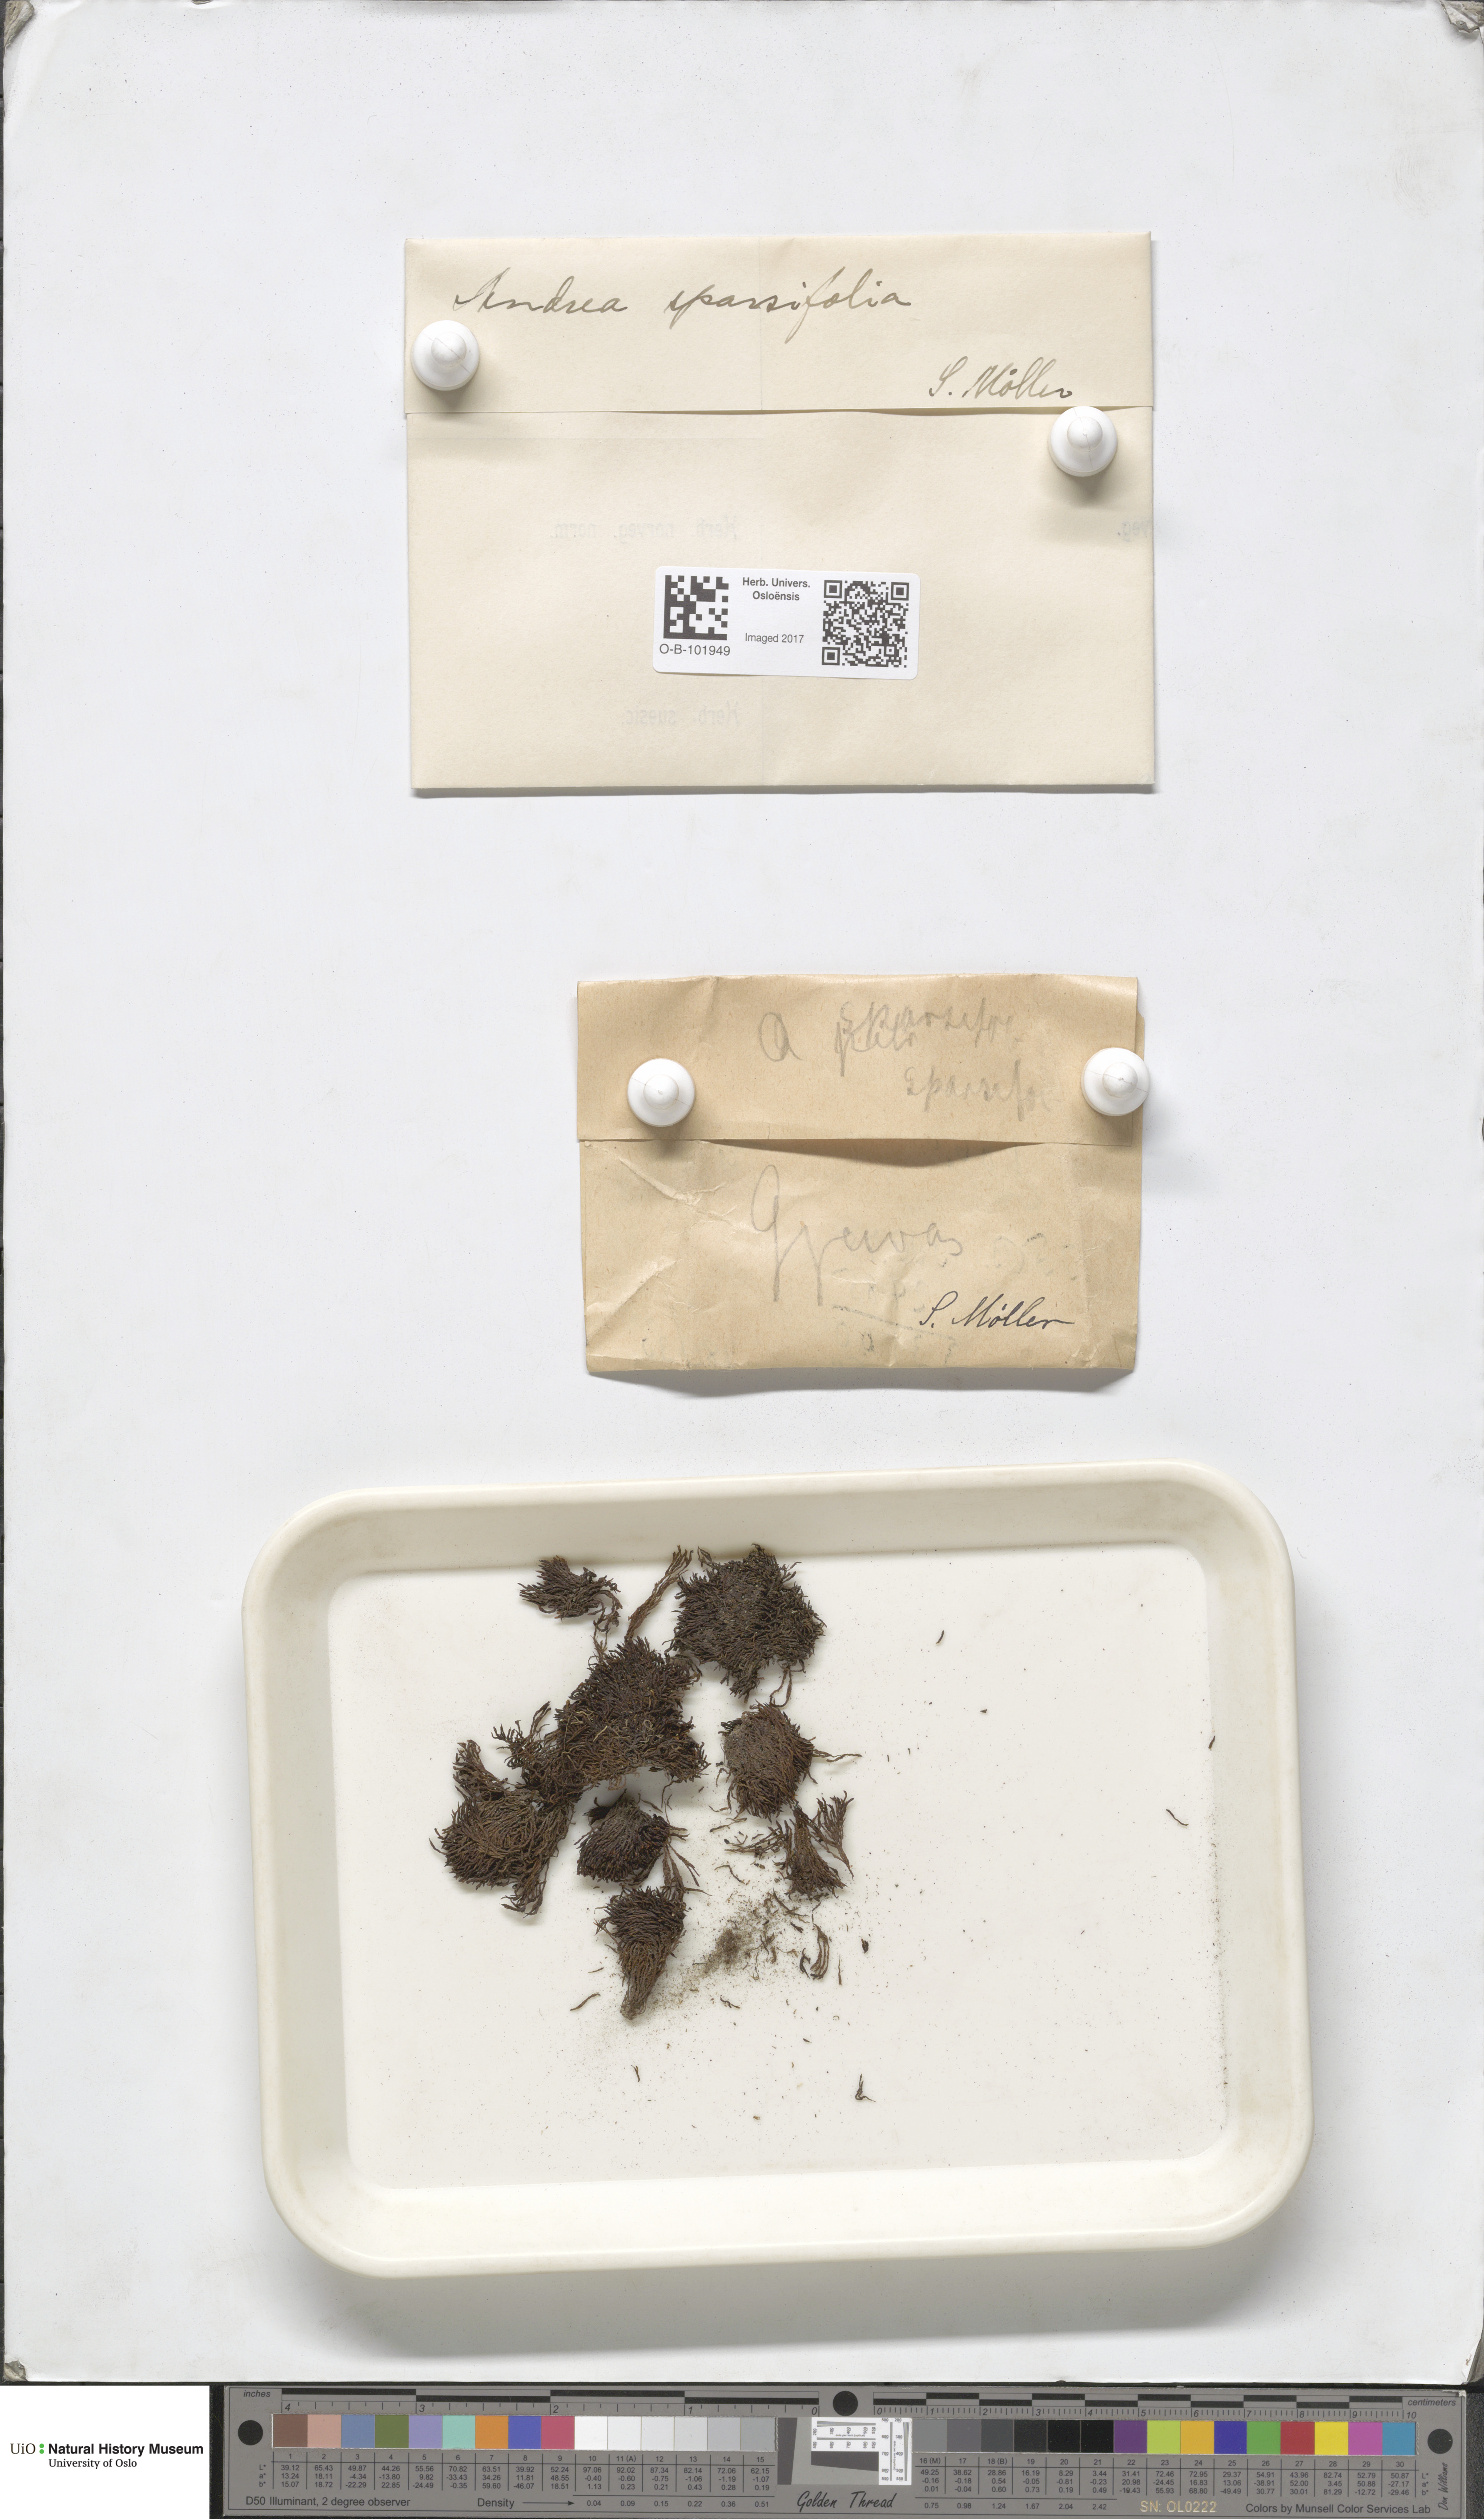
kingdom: Plantae
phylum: Bryophyta
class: Andreaeopsida
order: Andreaeales
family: Andreaeaceae
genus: Andreaea
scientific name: Andreaea rupestris
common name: Black rock moss
